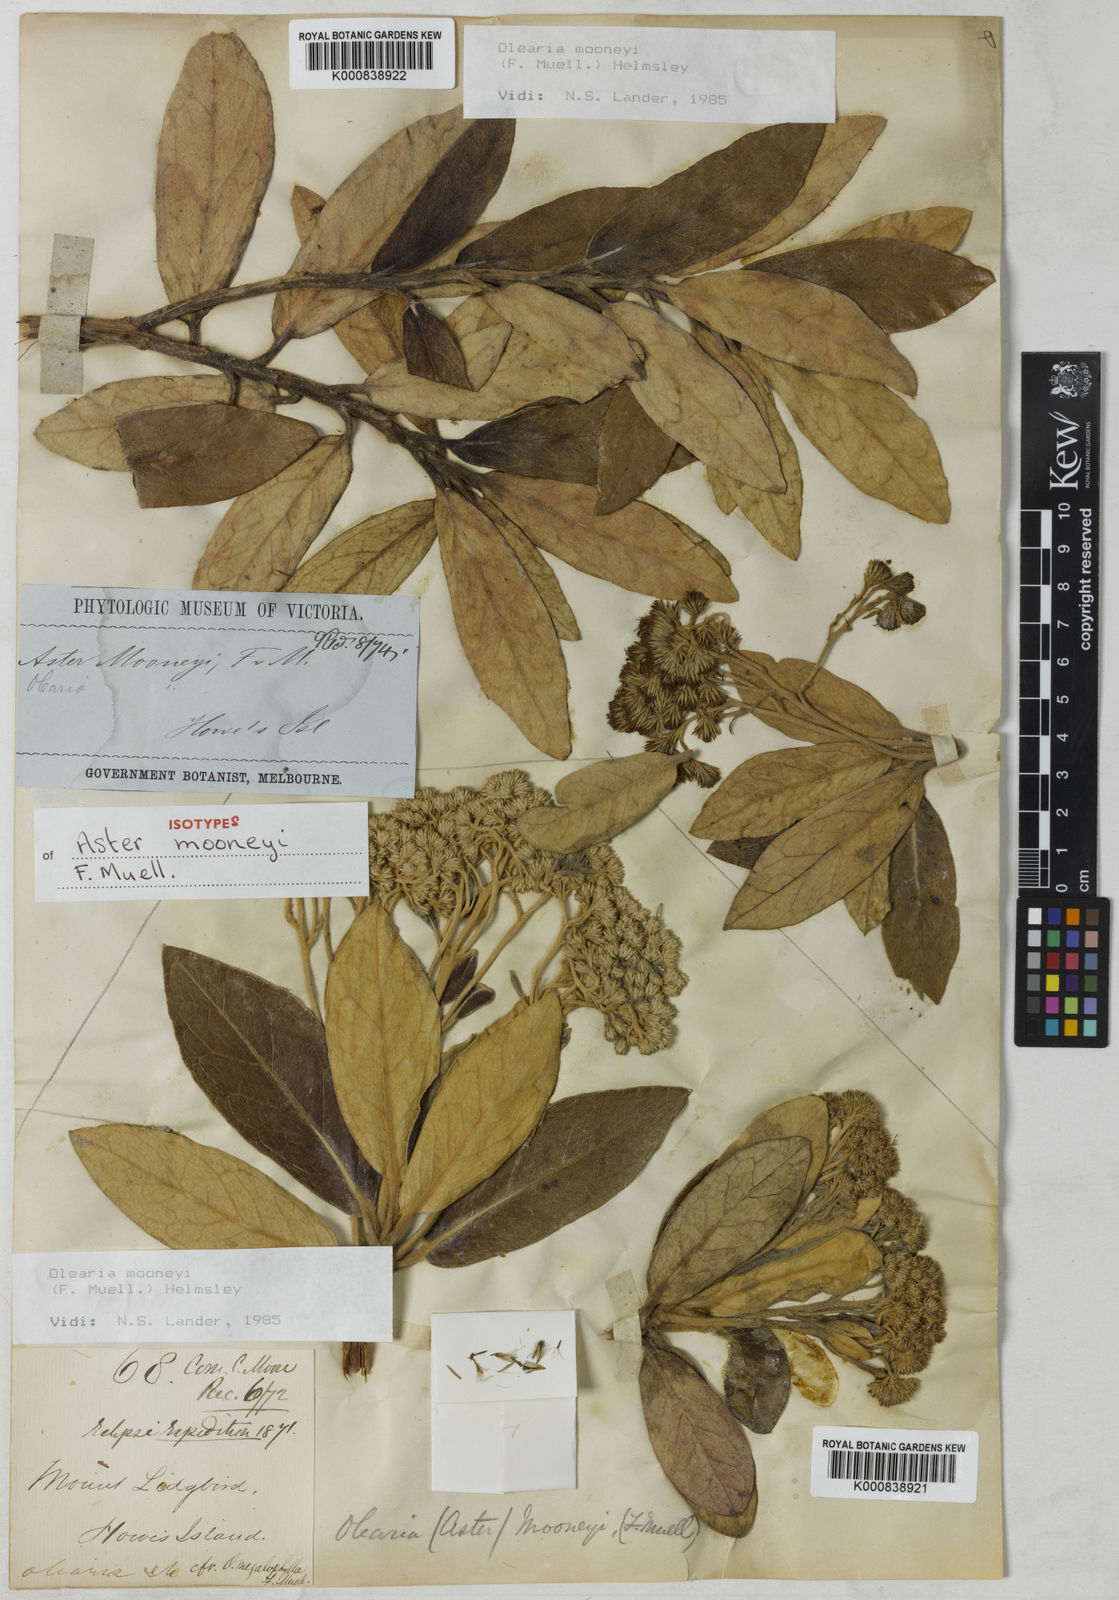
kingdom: Plantae
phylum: Tracheophyta
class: Magnoliopsida
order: Asterales
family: Asteraceae
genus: Olearia
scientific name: Olearia mooneyi
